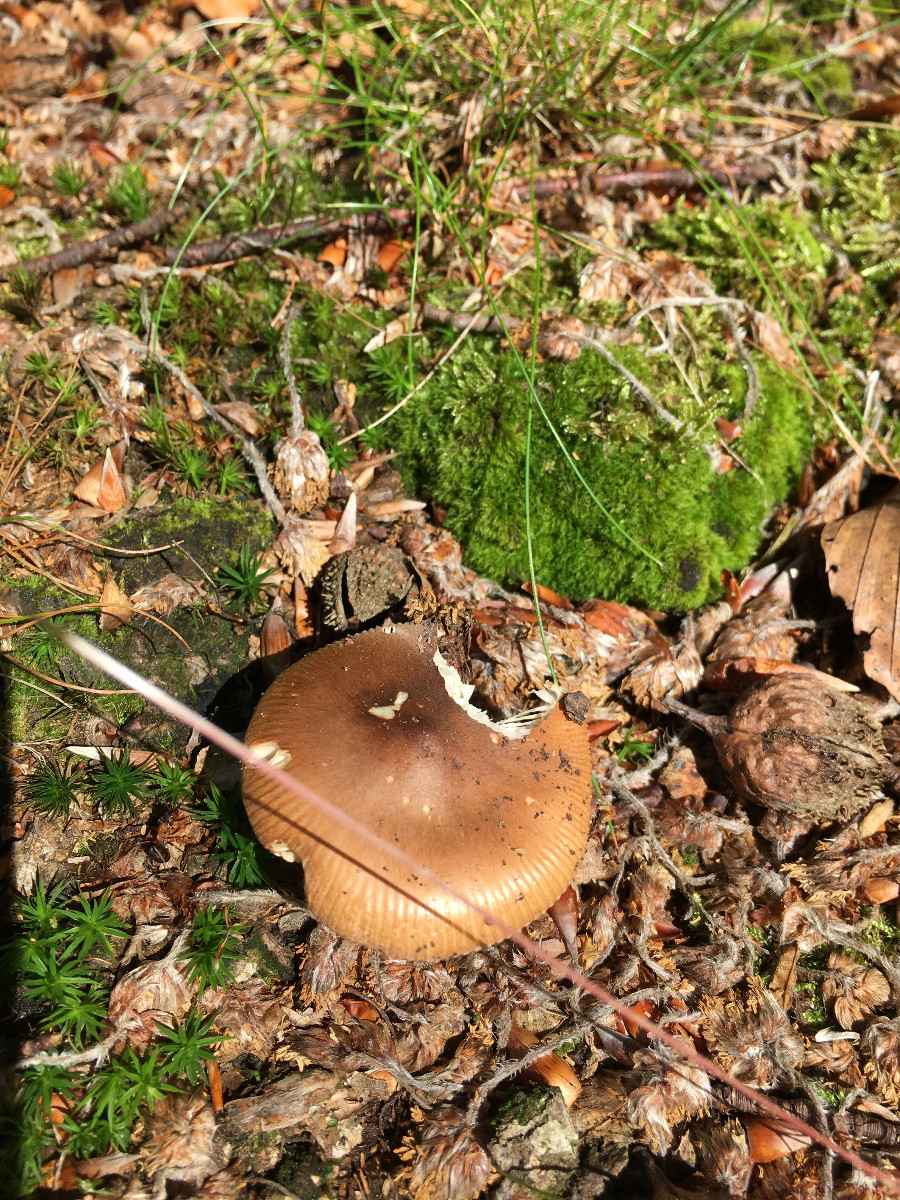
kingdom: Fungi
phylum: Basidiomycota
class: Agaricomycetes
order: Agaricales
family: Amanitaceae
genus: Amanita
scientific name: Amanita fulva
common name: brun kam-fluesvamp
